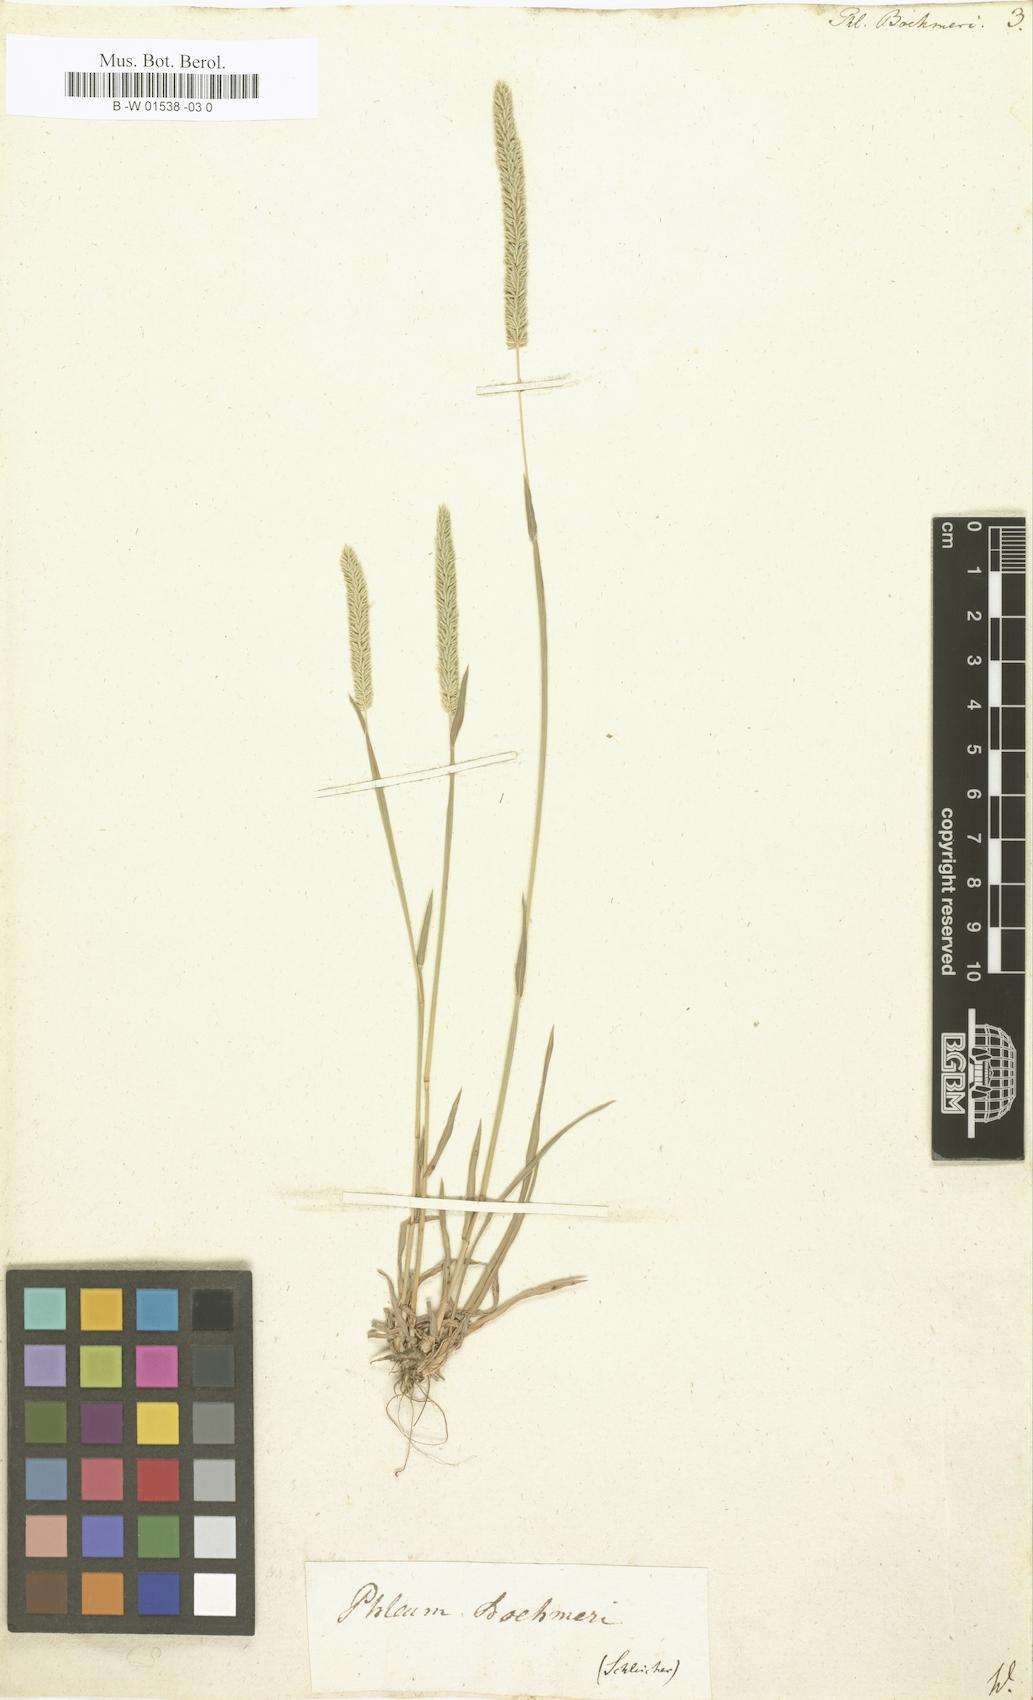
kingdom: Plantae
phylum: Tracheophyta
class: Liliopsida
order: Poales
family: Poaceae
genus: Phleum
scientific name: Phleum phleoides
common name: Purple-stem cat's-tail
